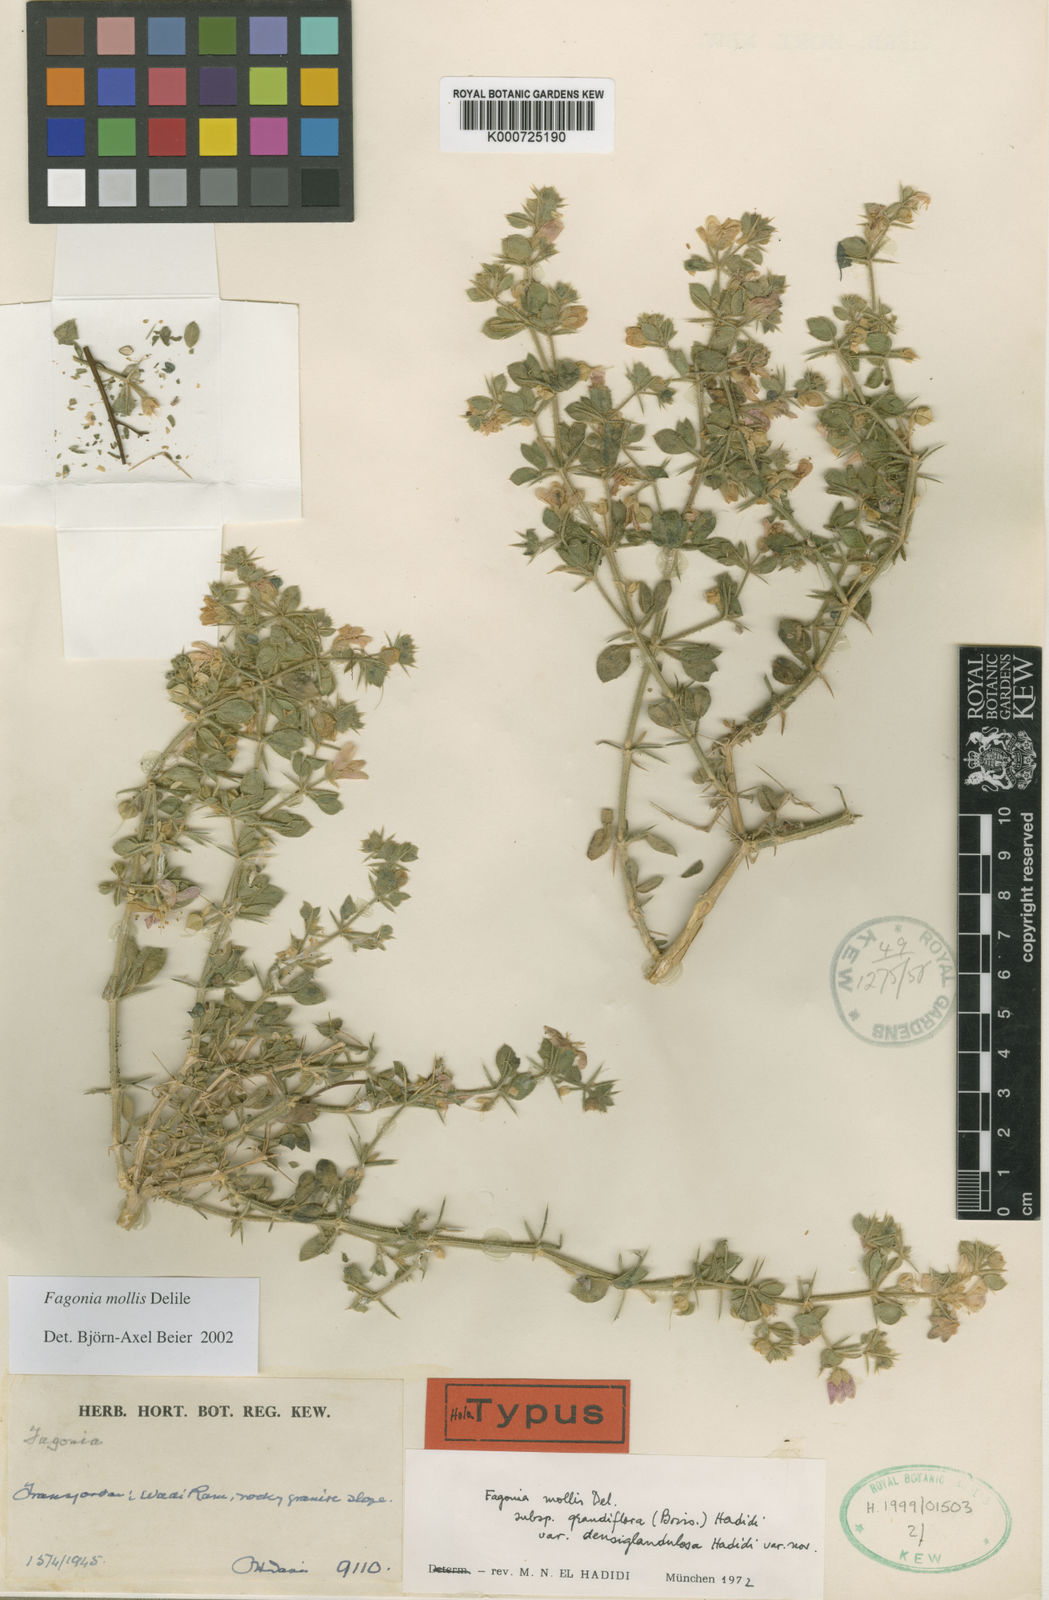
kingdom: Plantae
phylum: Tracheophyta
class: Magnoliopsida
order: Zygophyllales
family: Zygophyllaceae
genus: Fagonia
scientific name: Fagonia mollis
